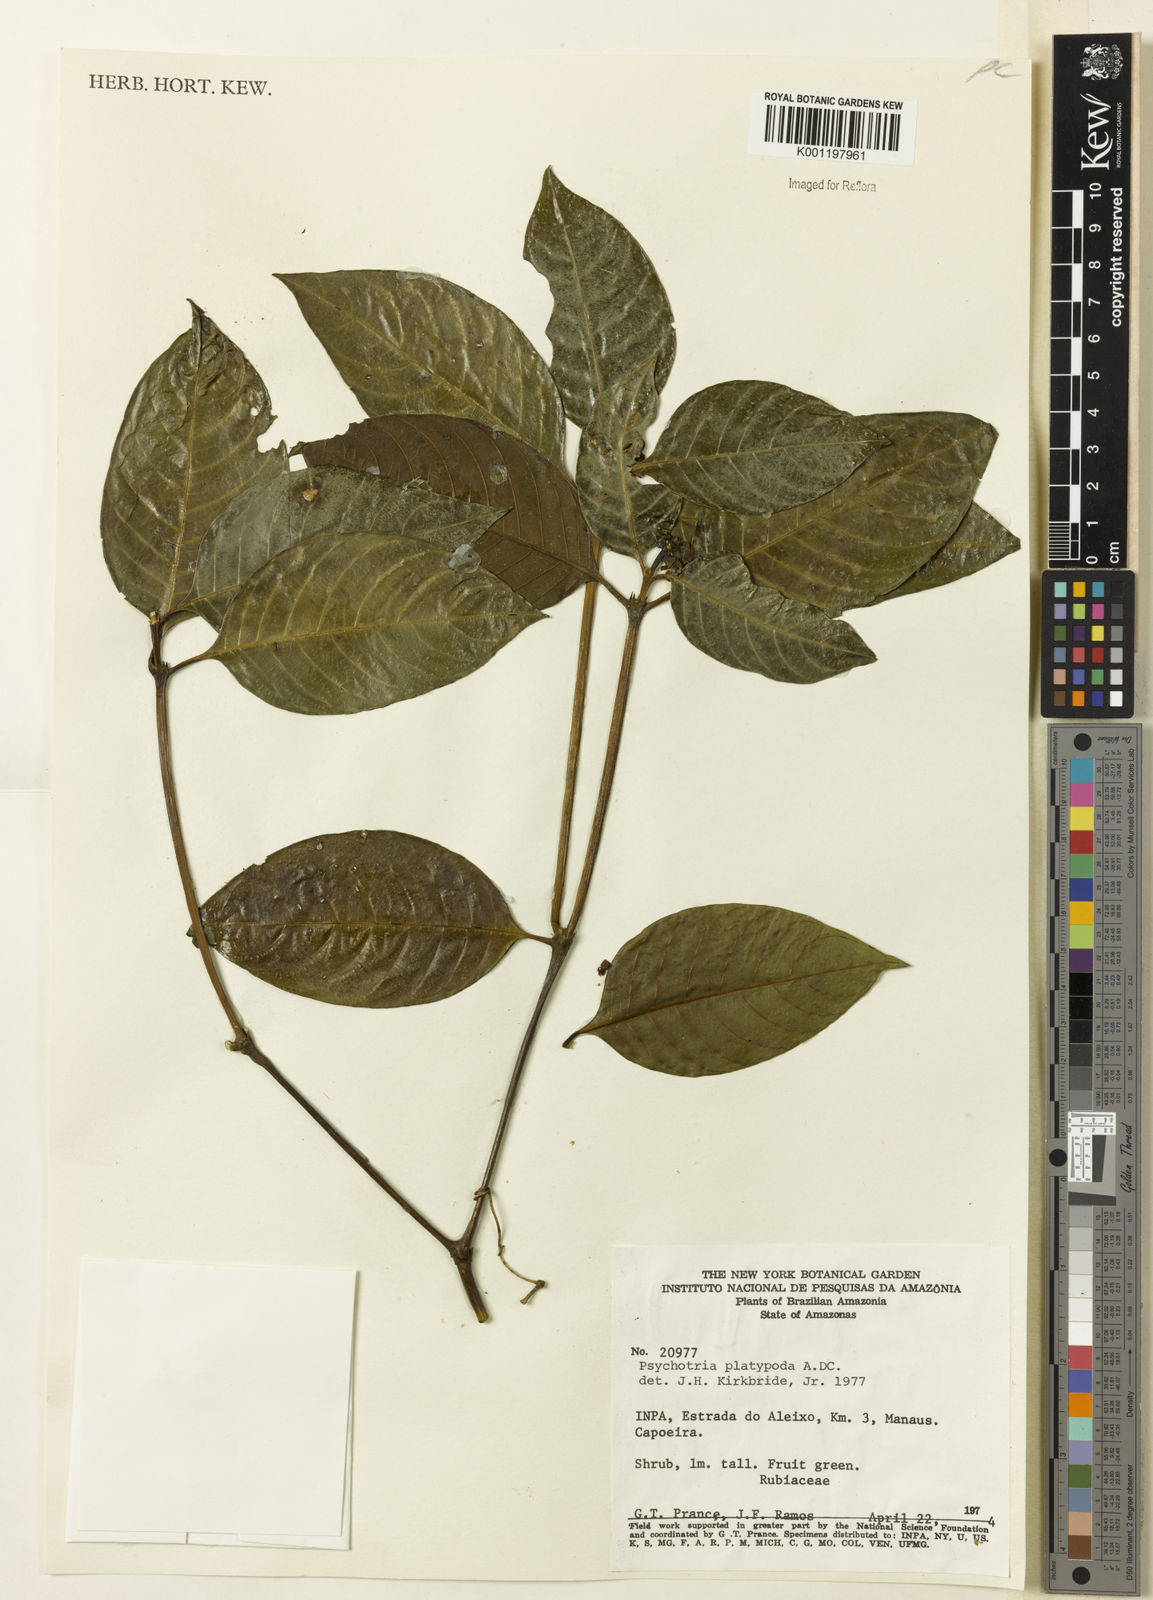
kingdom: Plantae
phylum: Tracheophyta
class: Magnoliopsida
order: Gentianales
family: Rubiaceae
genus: Palicourea
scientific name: Palicourea dichotoma
